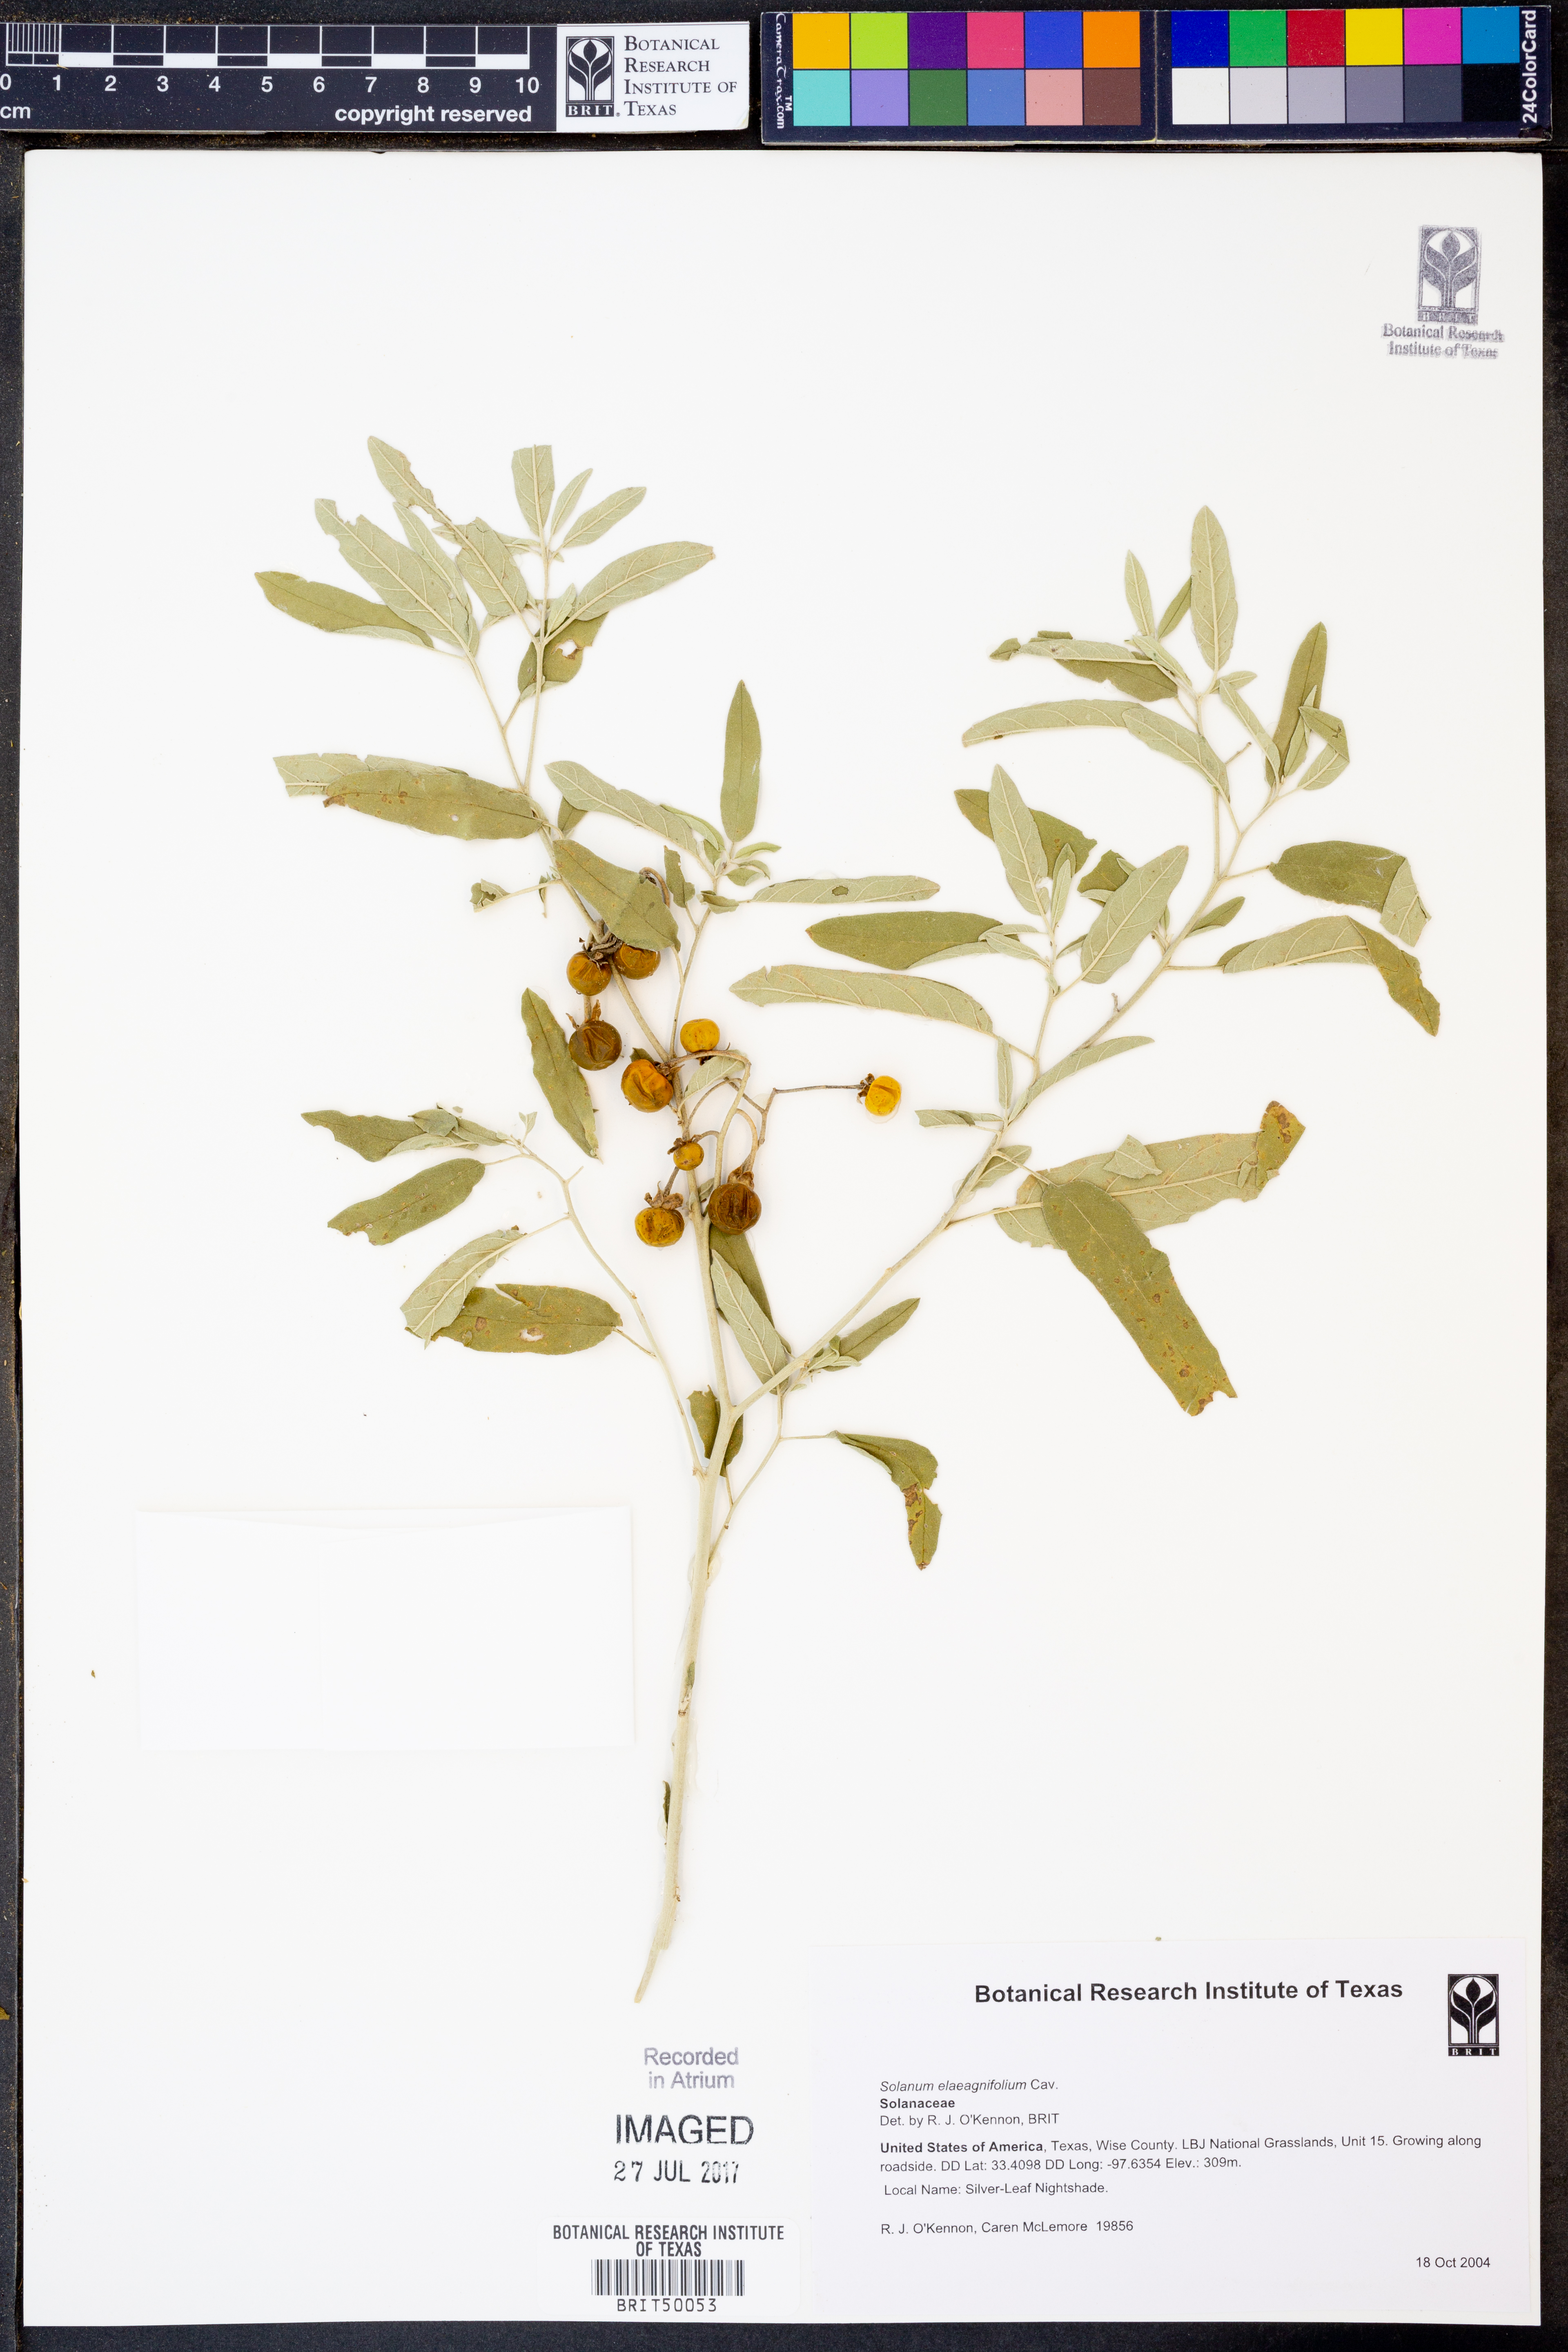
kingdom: Plantae
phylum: Tracheophyta
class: Magnoliopsida
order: Solanales
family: Solanaceae
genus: Solanum
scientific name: Solanum elaeagnifolium
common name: Silverleaf nightshade
